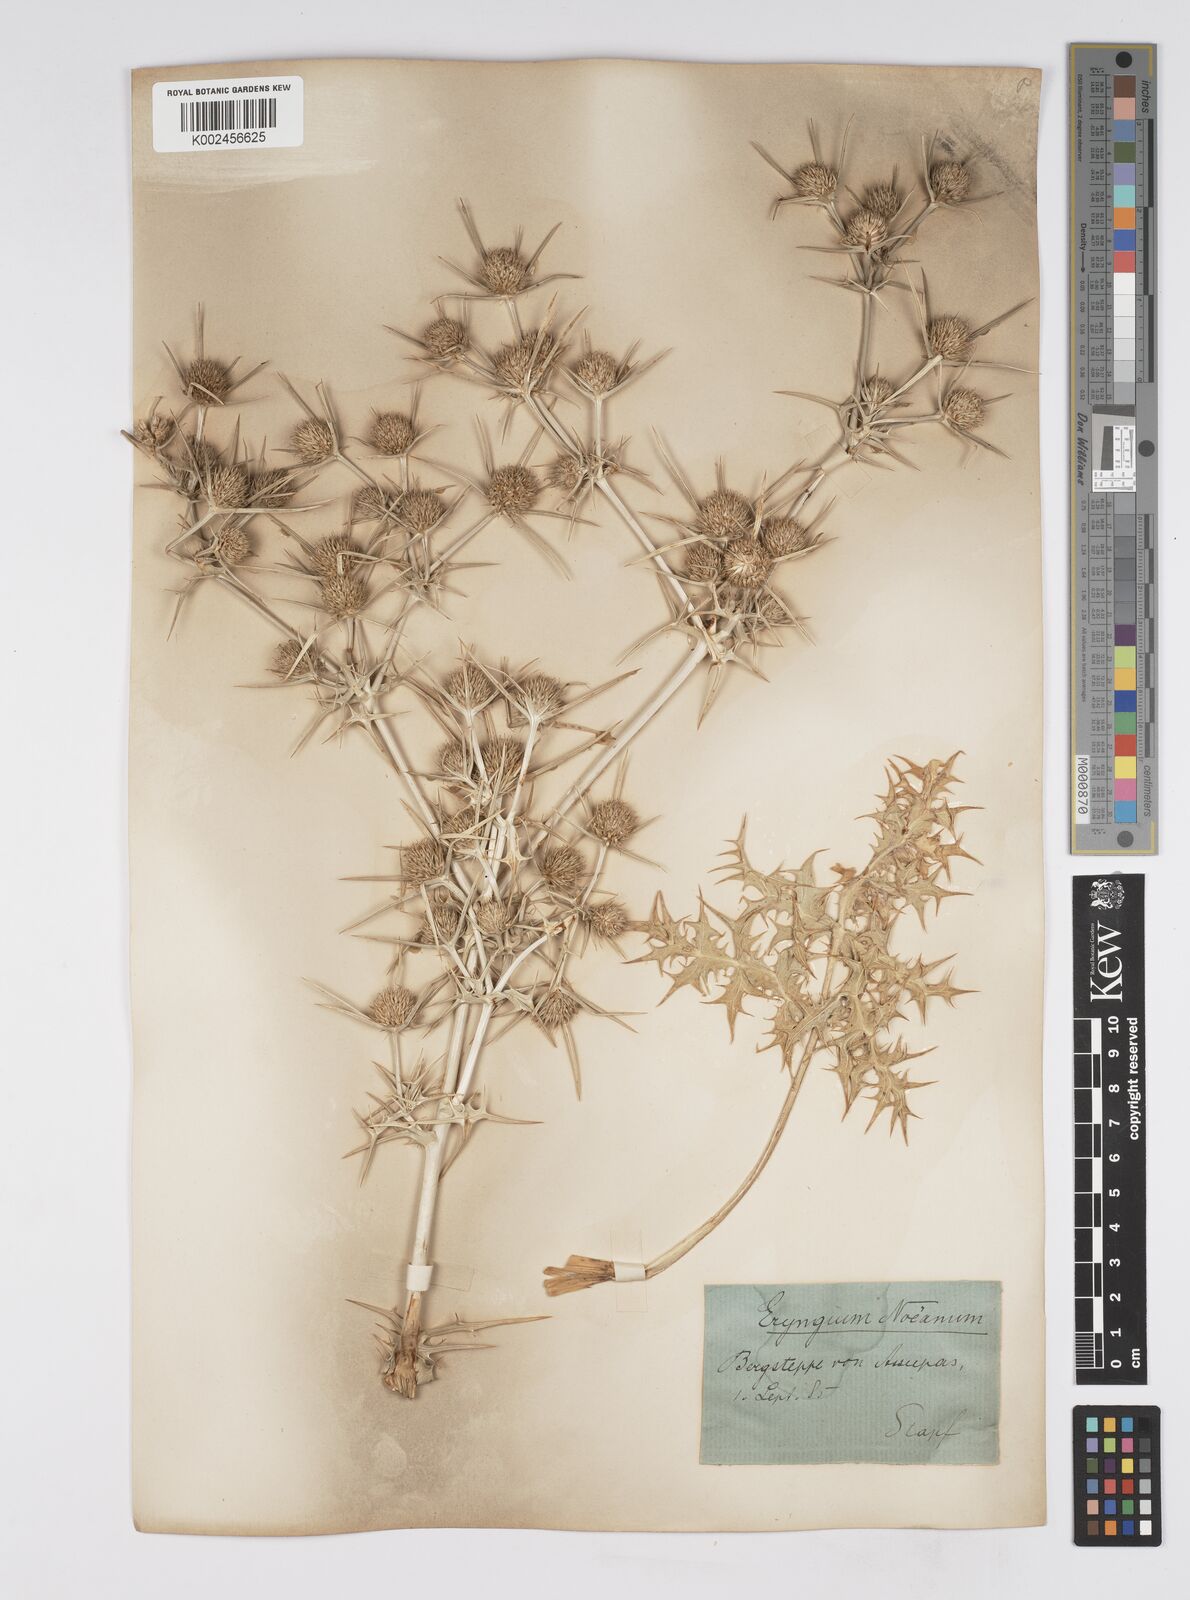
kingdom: Plantae
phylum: Tracheophyta
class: Magnoliopsida
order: Apiales
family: Apiaceae
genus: Eryngium
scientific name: Eryngium billardierei
